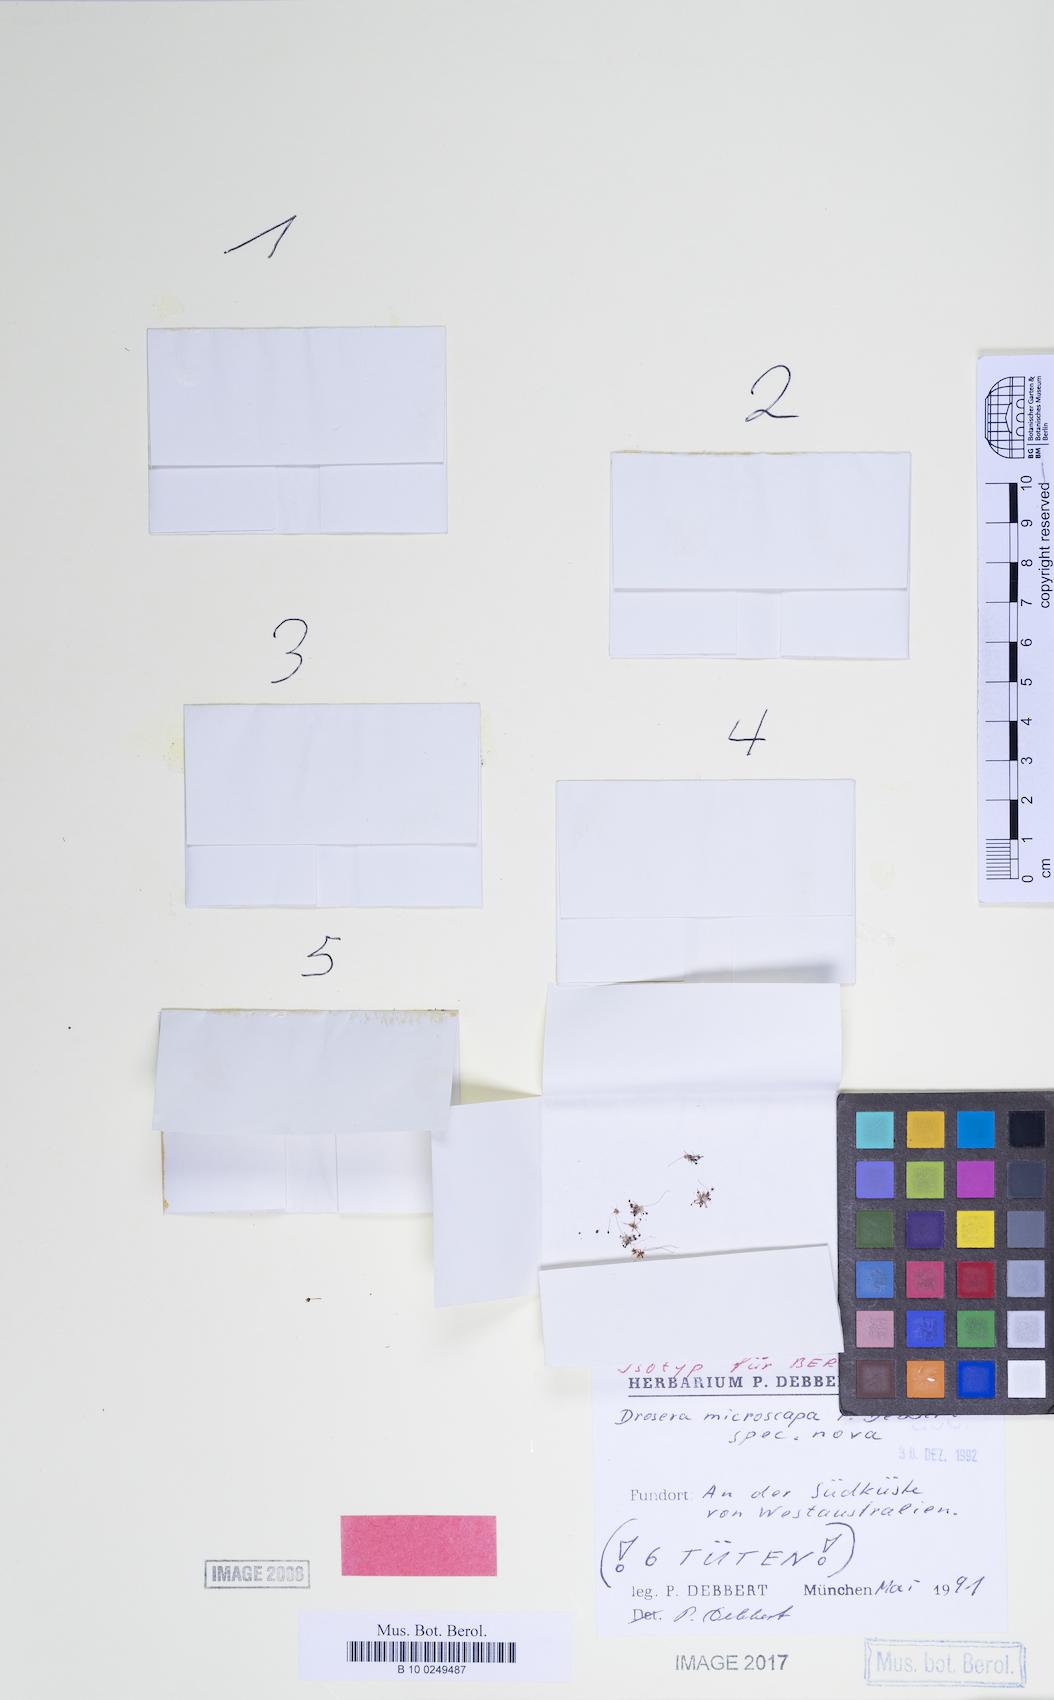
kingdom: Plantae
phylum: Tracheophyta
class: Magnoliopsida
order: Caryophyllales
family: Droseraceae
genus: Drosera
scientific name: Drosera occidentalis
